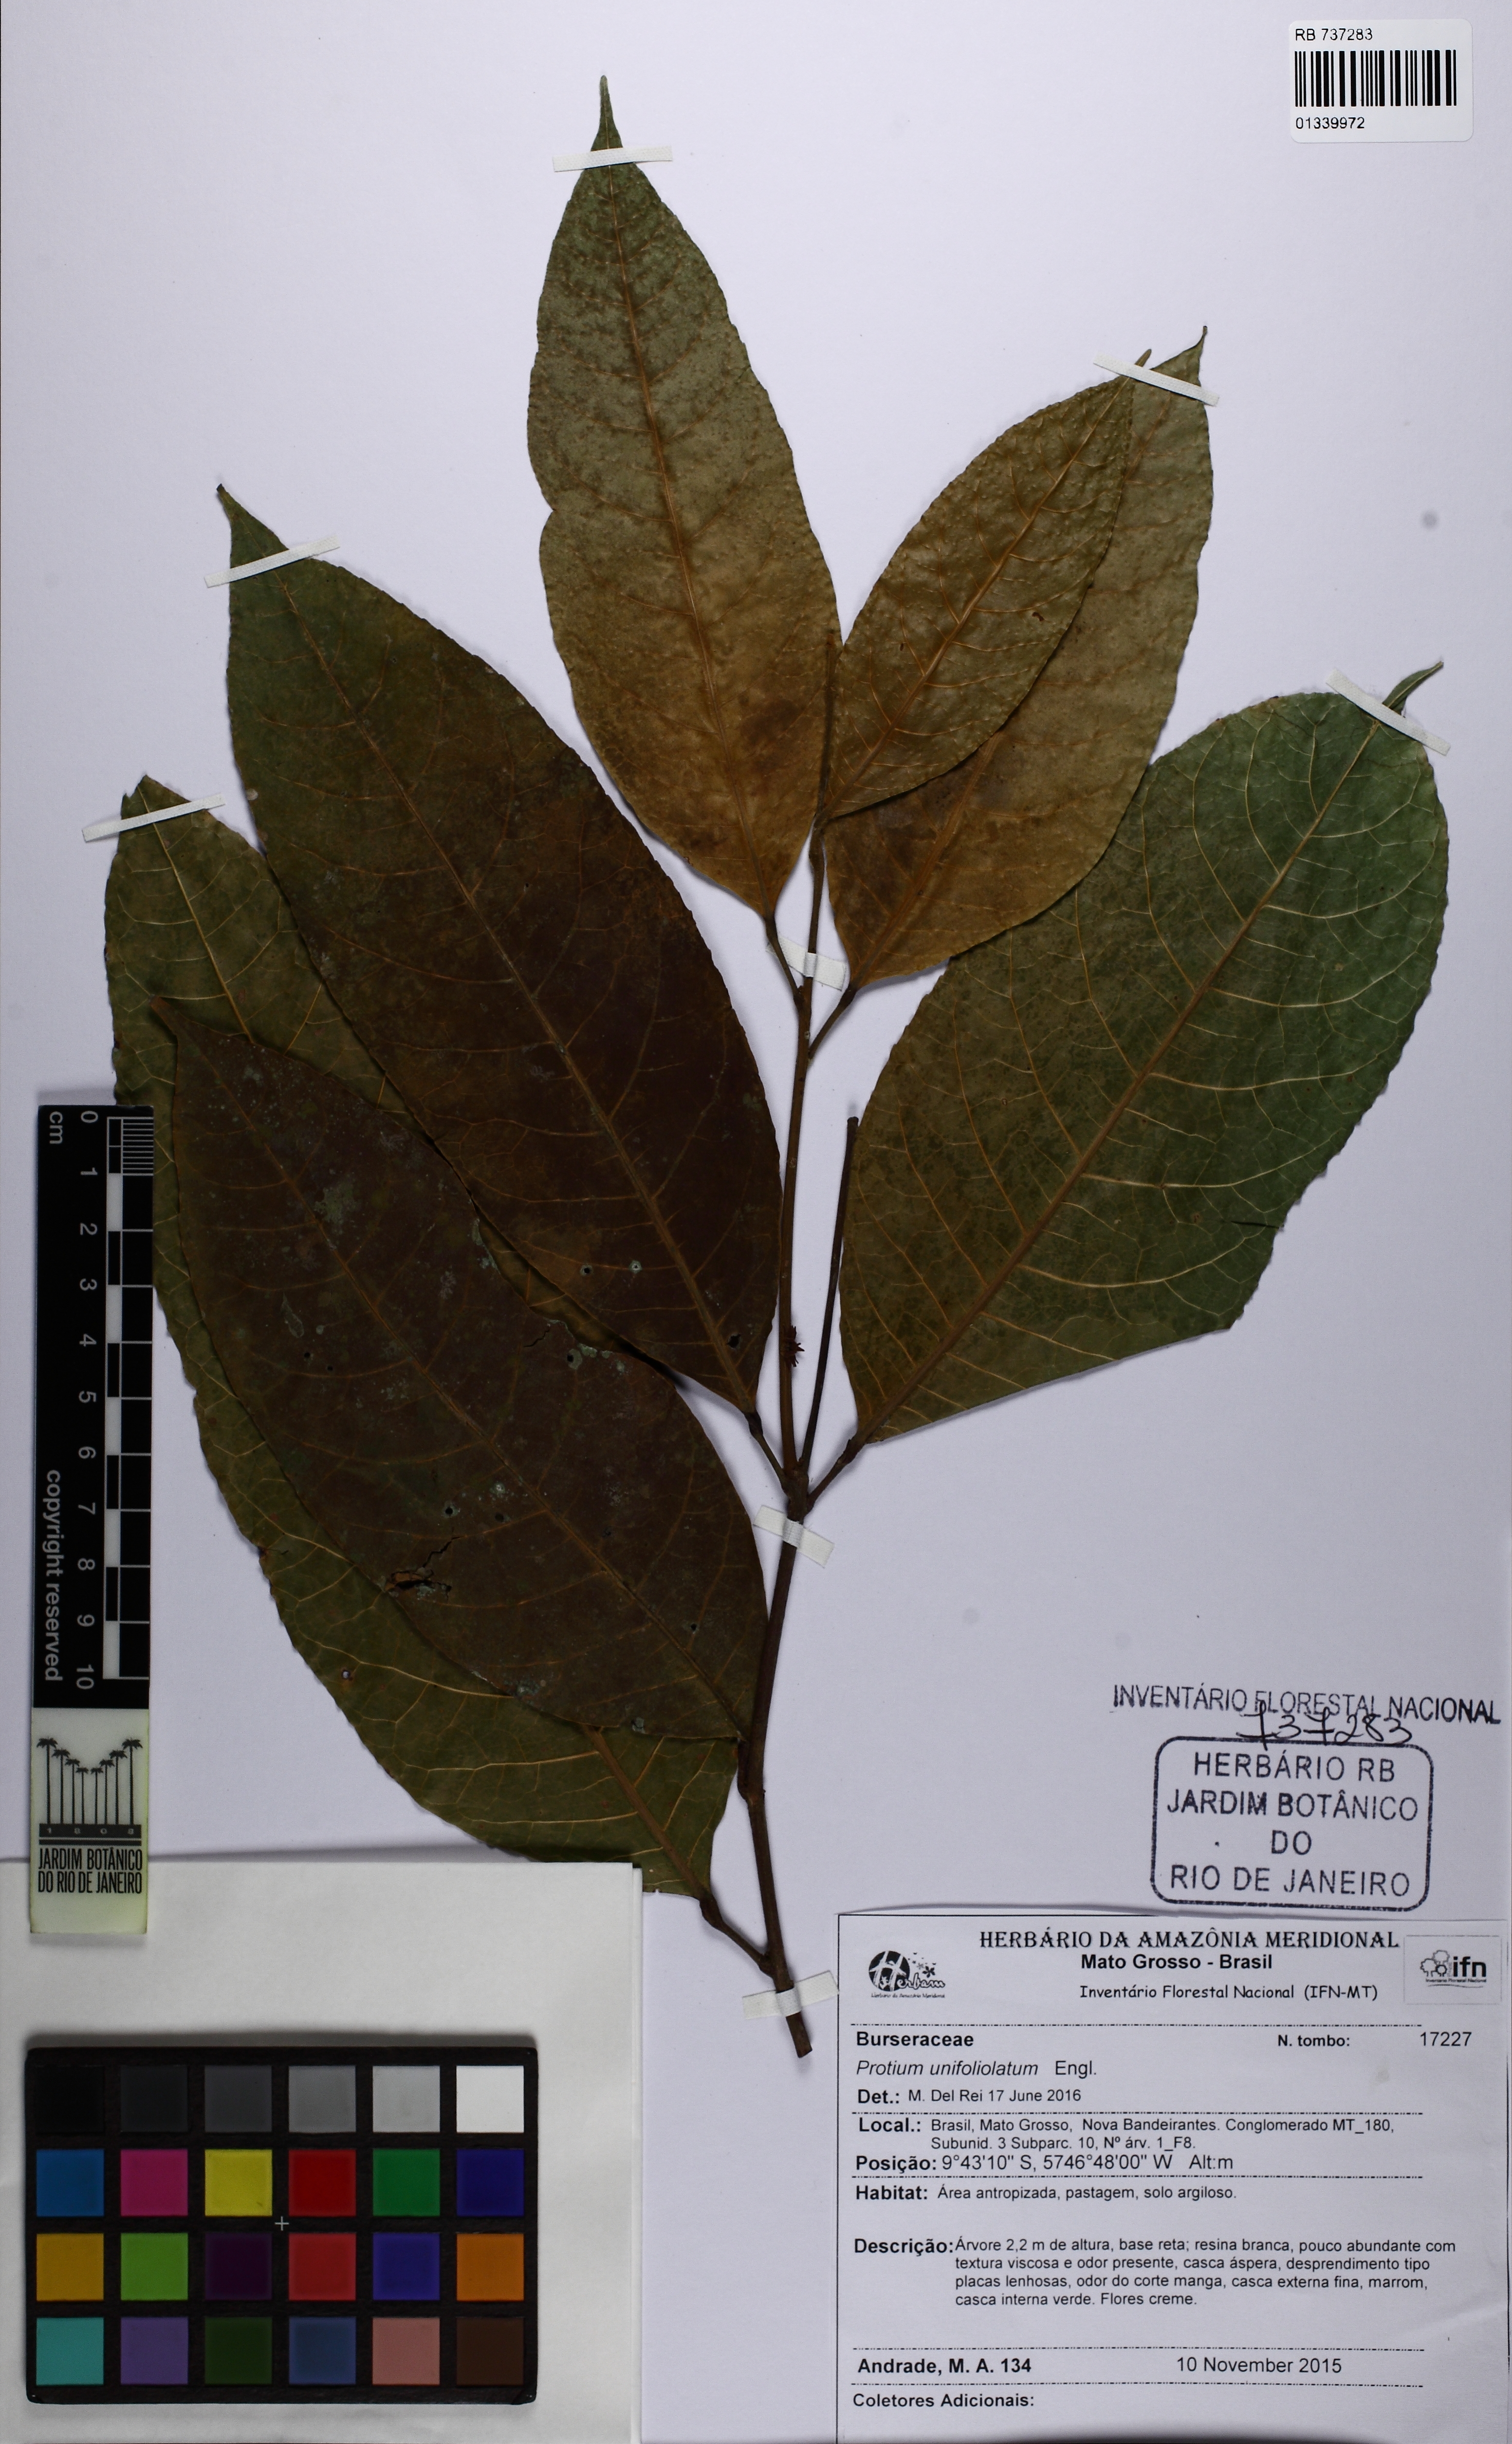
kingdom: Plantae
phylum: Tracheophyta
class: Magnoliopsida
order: Sapindales
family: Burseraceae
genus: Protium
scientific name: Protium unifoliolatum
